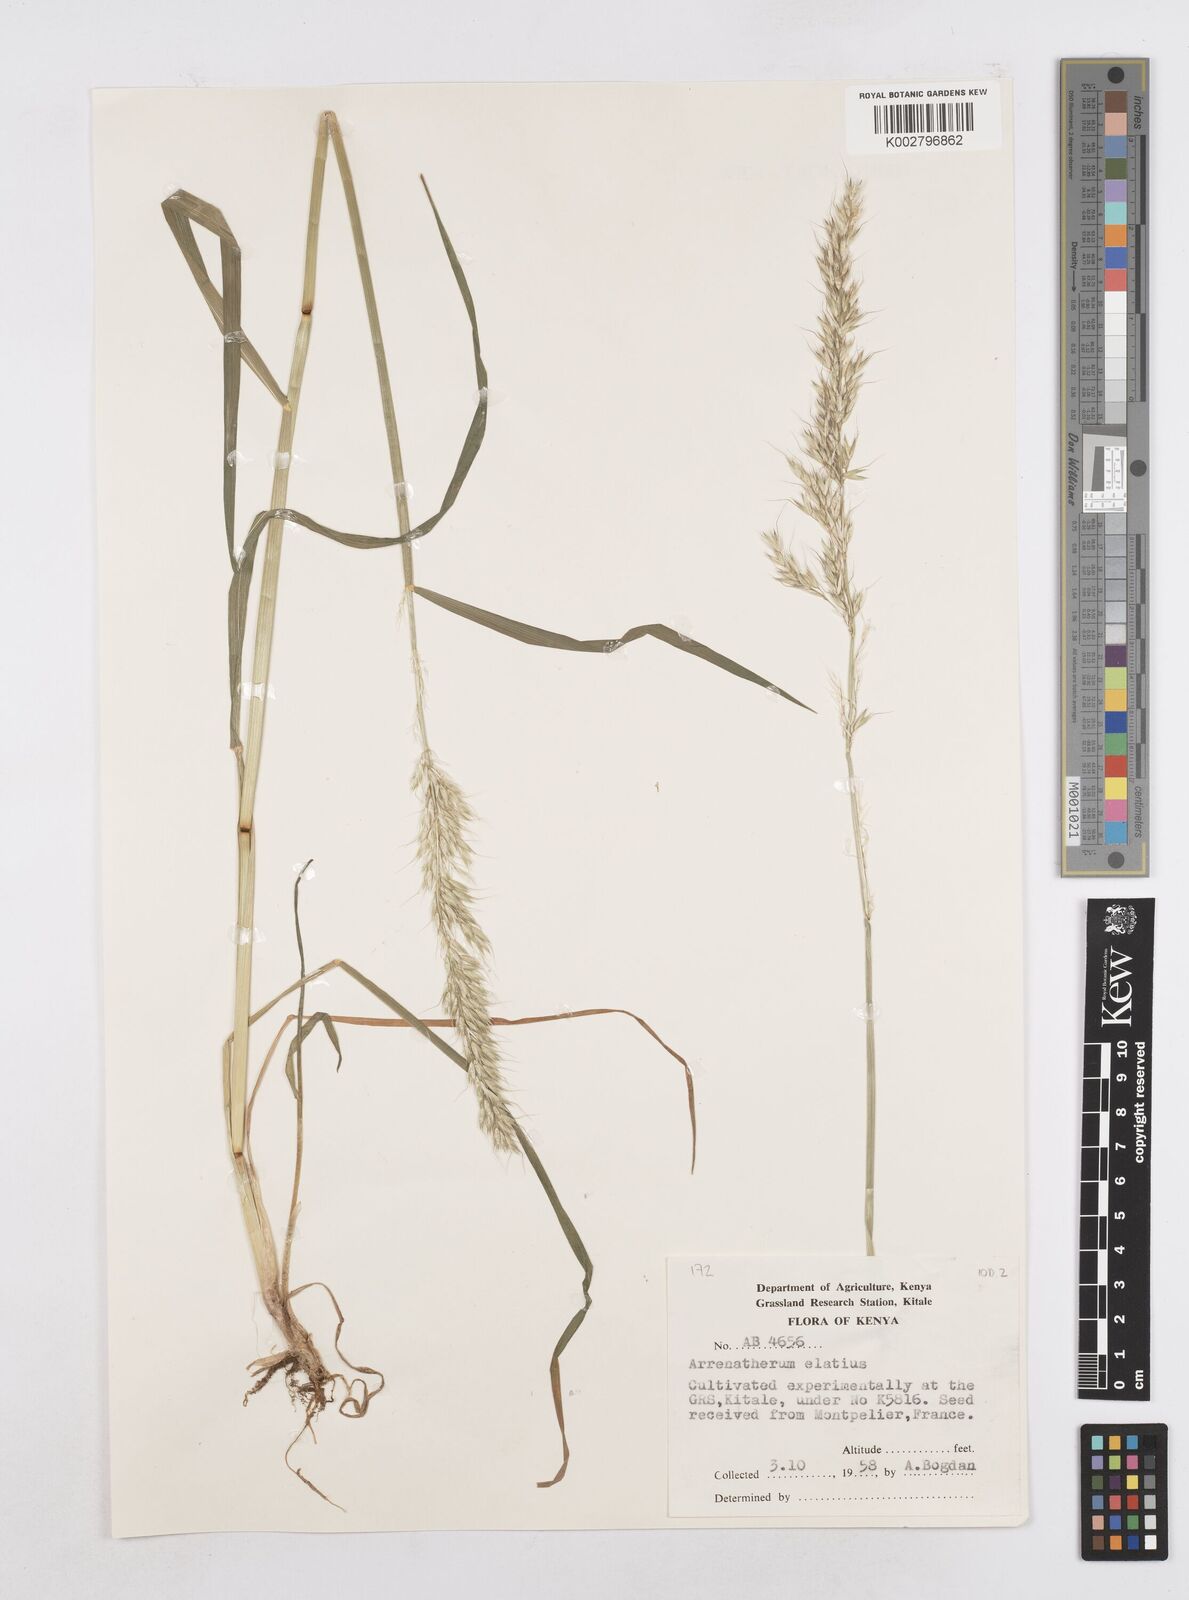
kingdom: Plantae
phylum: Tracheophyta
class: Liliopsida
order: Poales
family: Poaceae
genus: Arrhenatherum
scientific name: Arrhenatherum elatius
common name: Tall oatgrass
